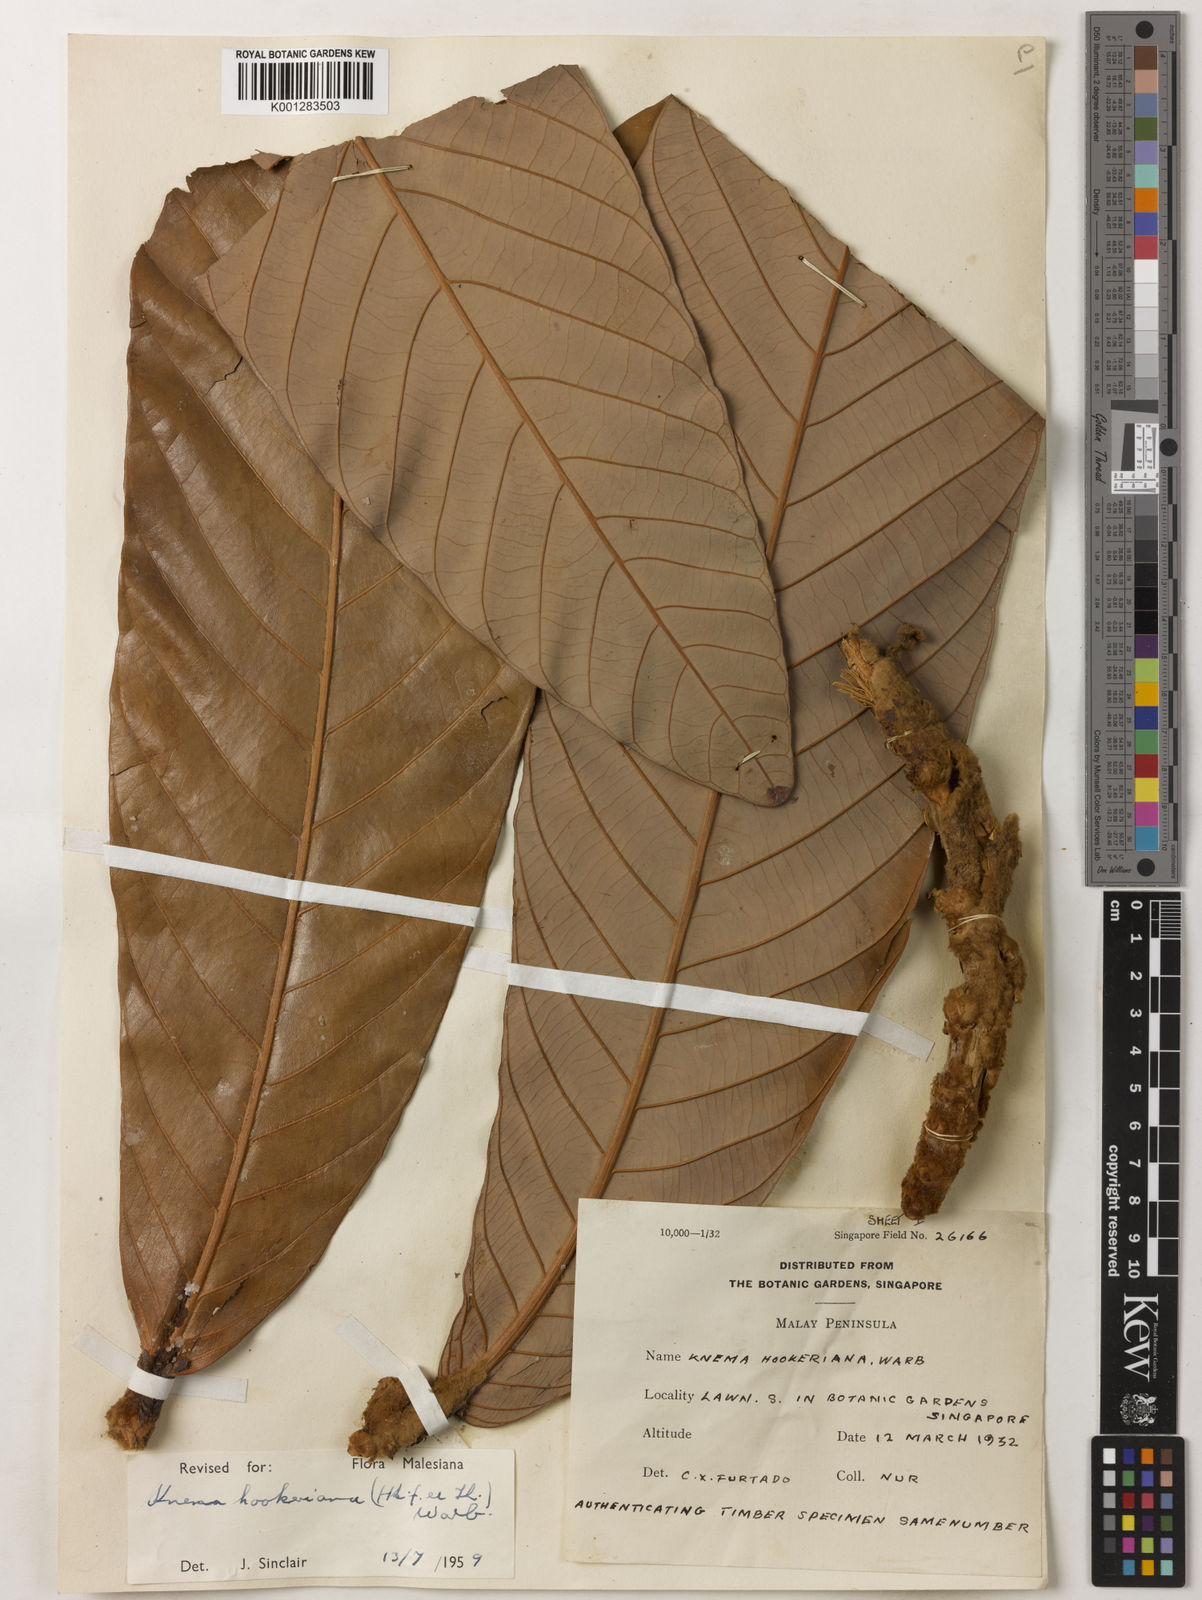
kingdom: Plantae
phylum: Tracheophyta
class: Magnoliopsida
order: Magnoliales
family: Myristicaceae
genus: Knema
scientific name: Knema hookeriana
